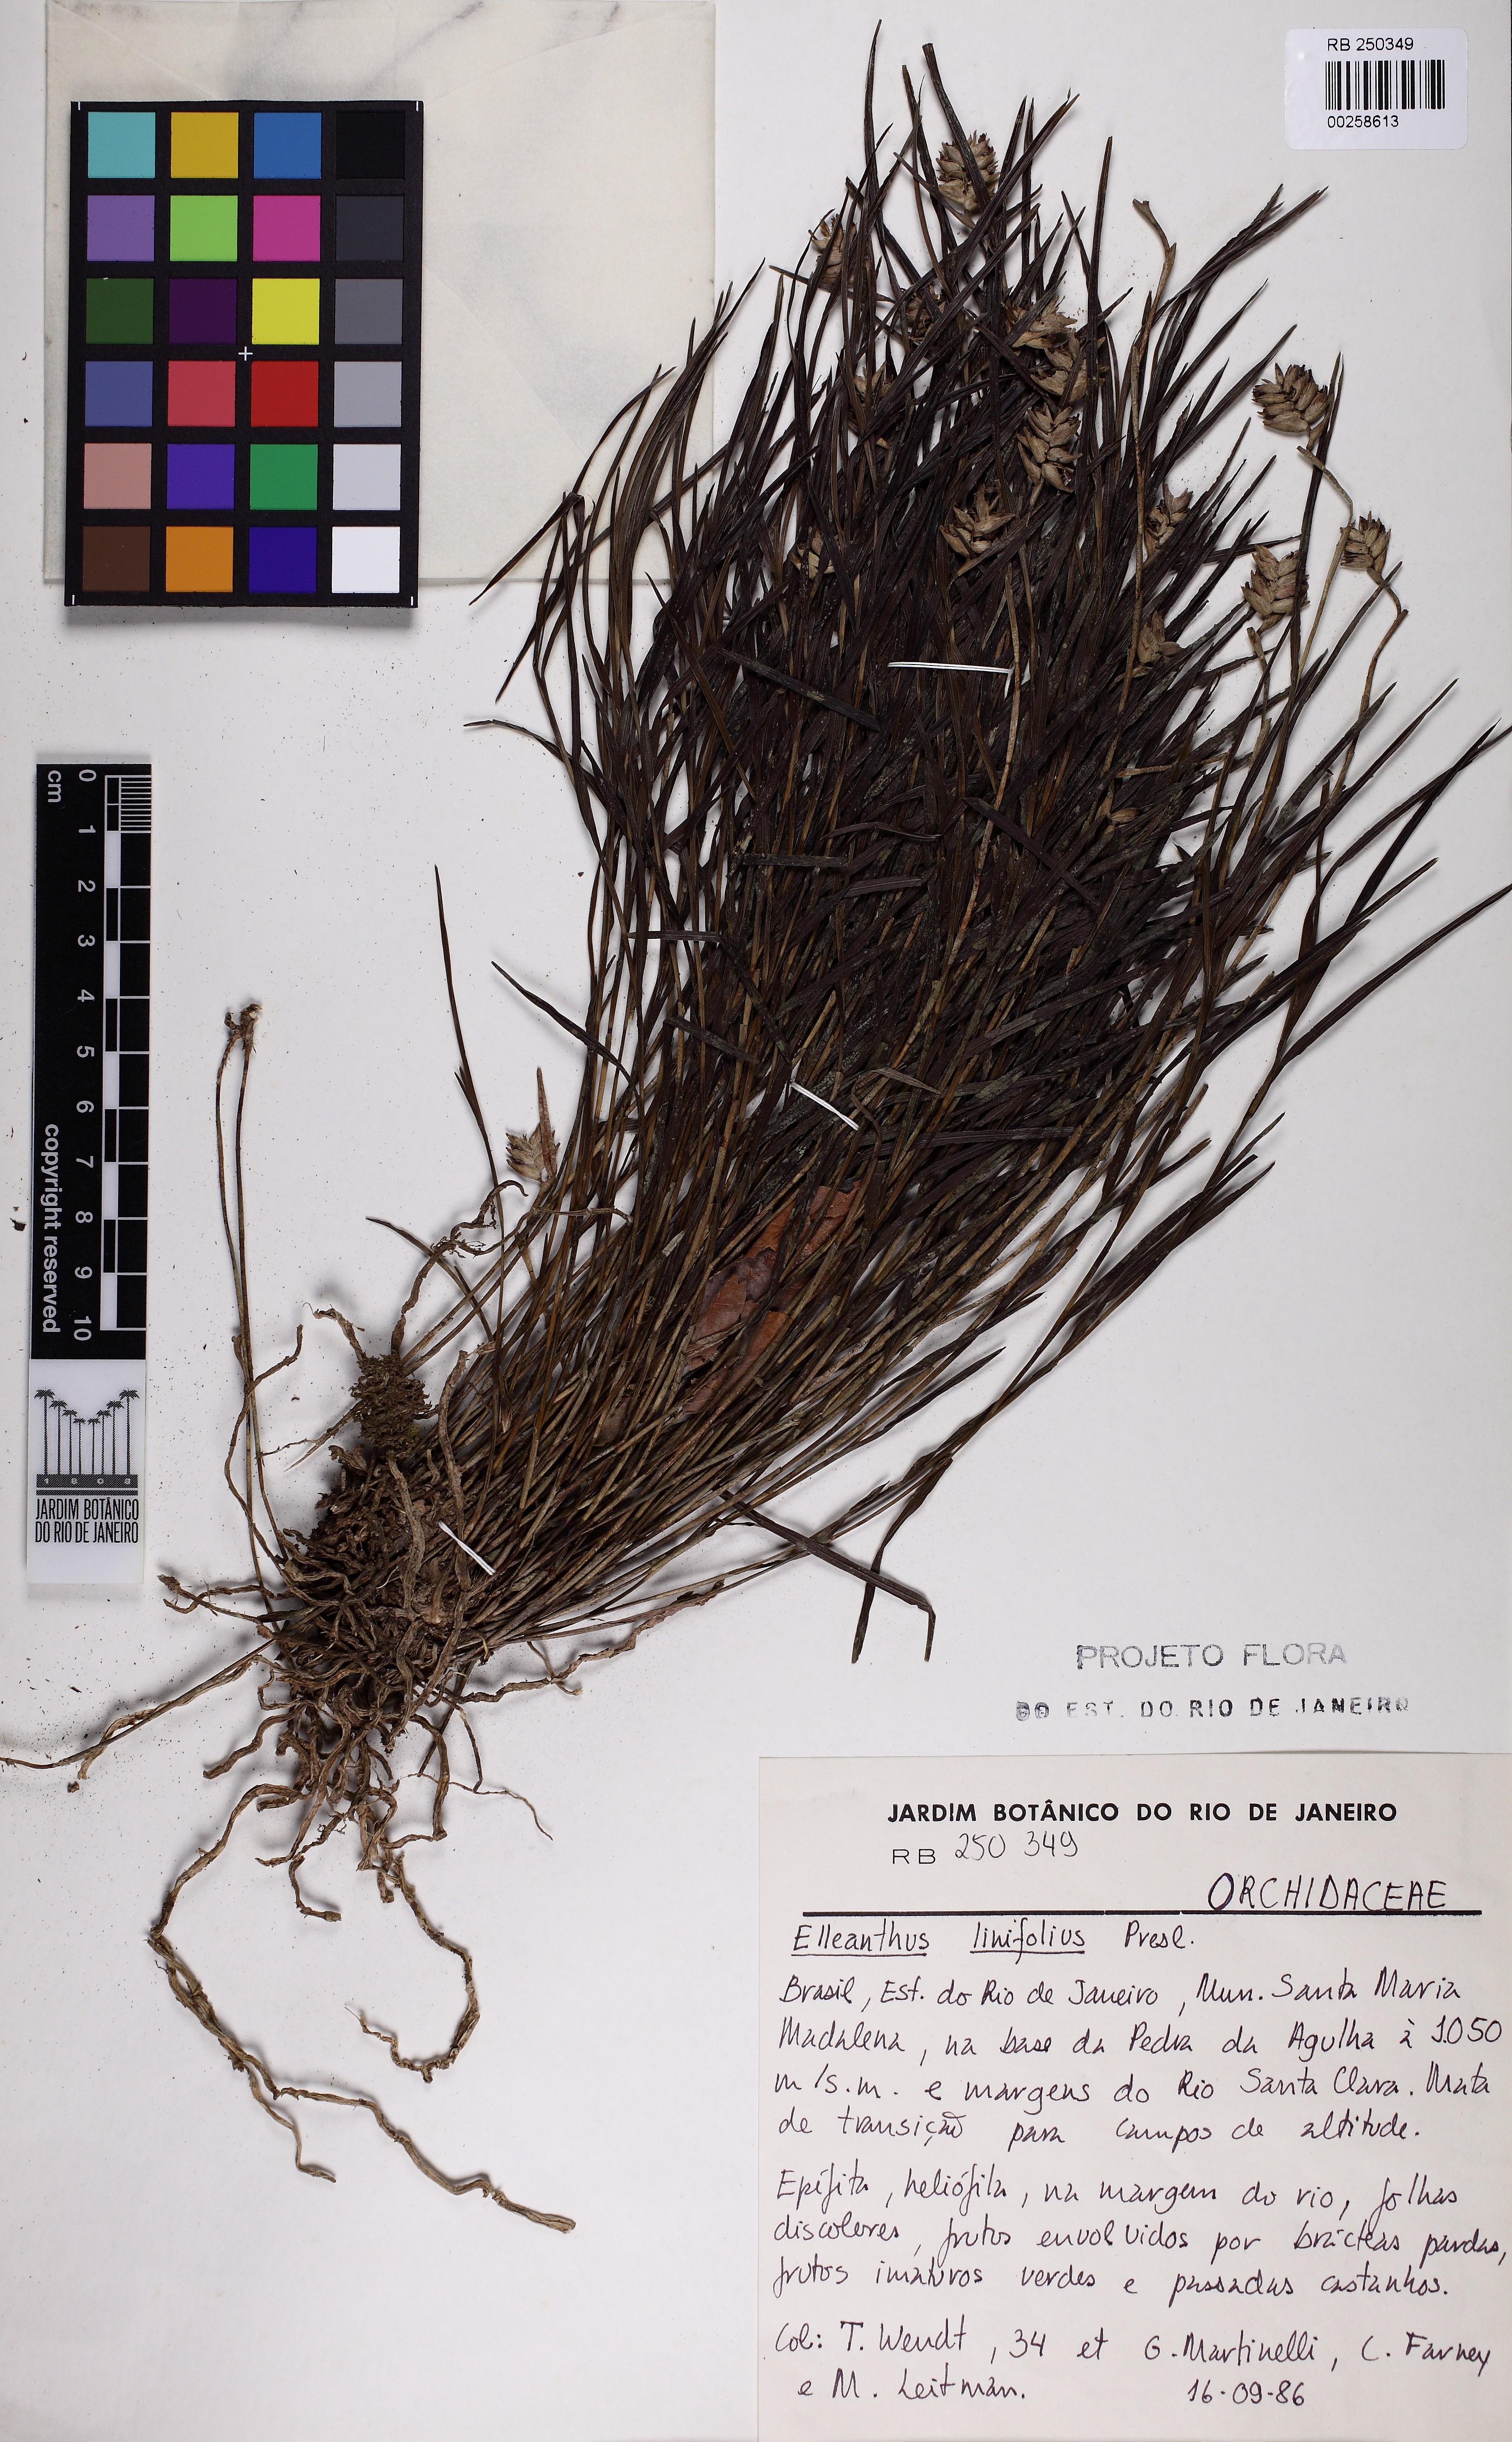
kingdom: Plantae
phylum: Tracheophyta
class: Liliopsida
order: Asparagales
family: Orchidaceae
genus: Elleanthus
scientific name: Elleanthus linifolius
